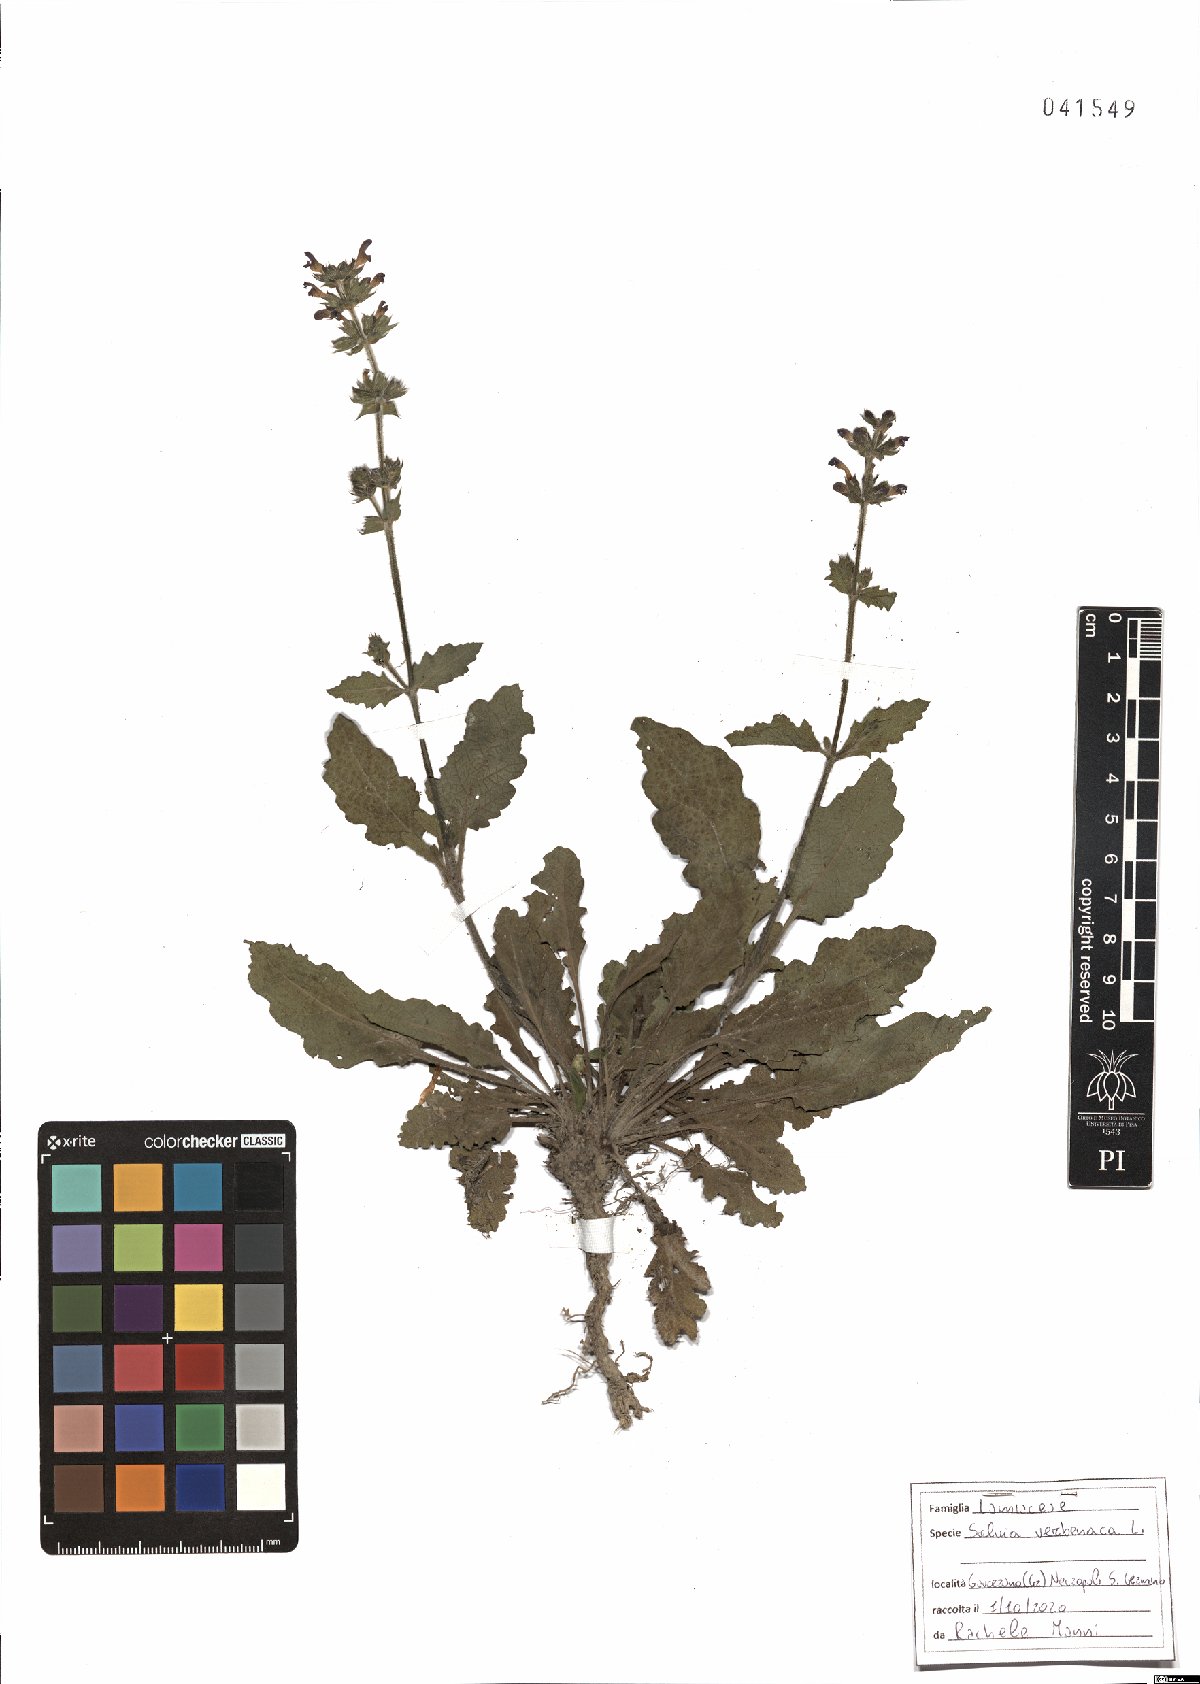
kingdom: Plantae
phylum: Tracheophyta
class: Magnoliopsida
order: Lamiales
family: Lamiaceae
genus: Salvia
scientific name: Salvia verbenaca
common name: Wild clary
